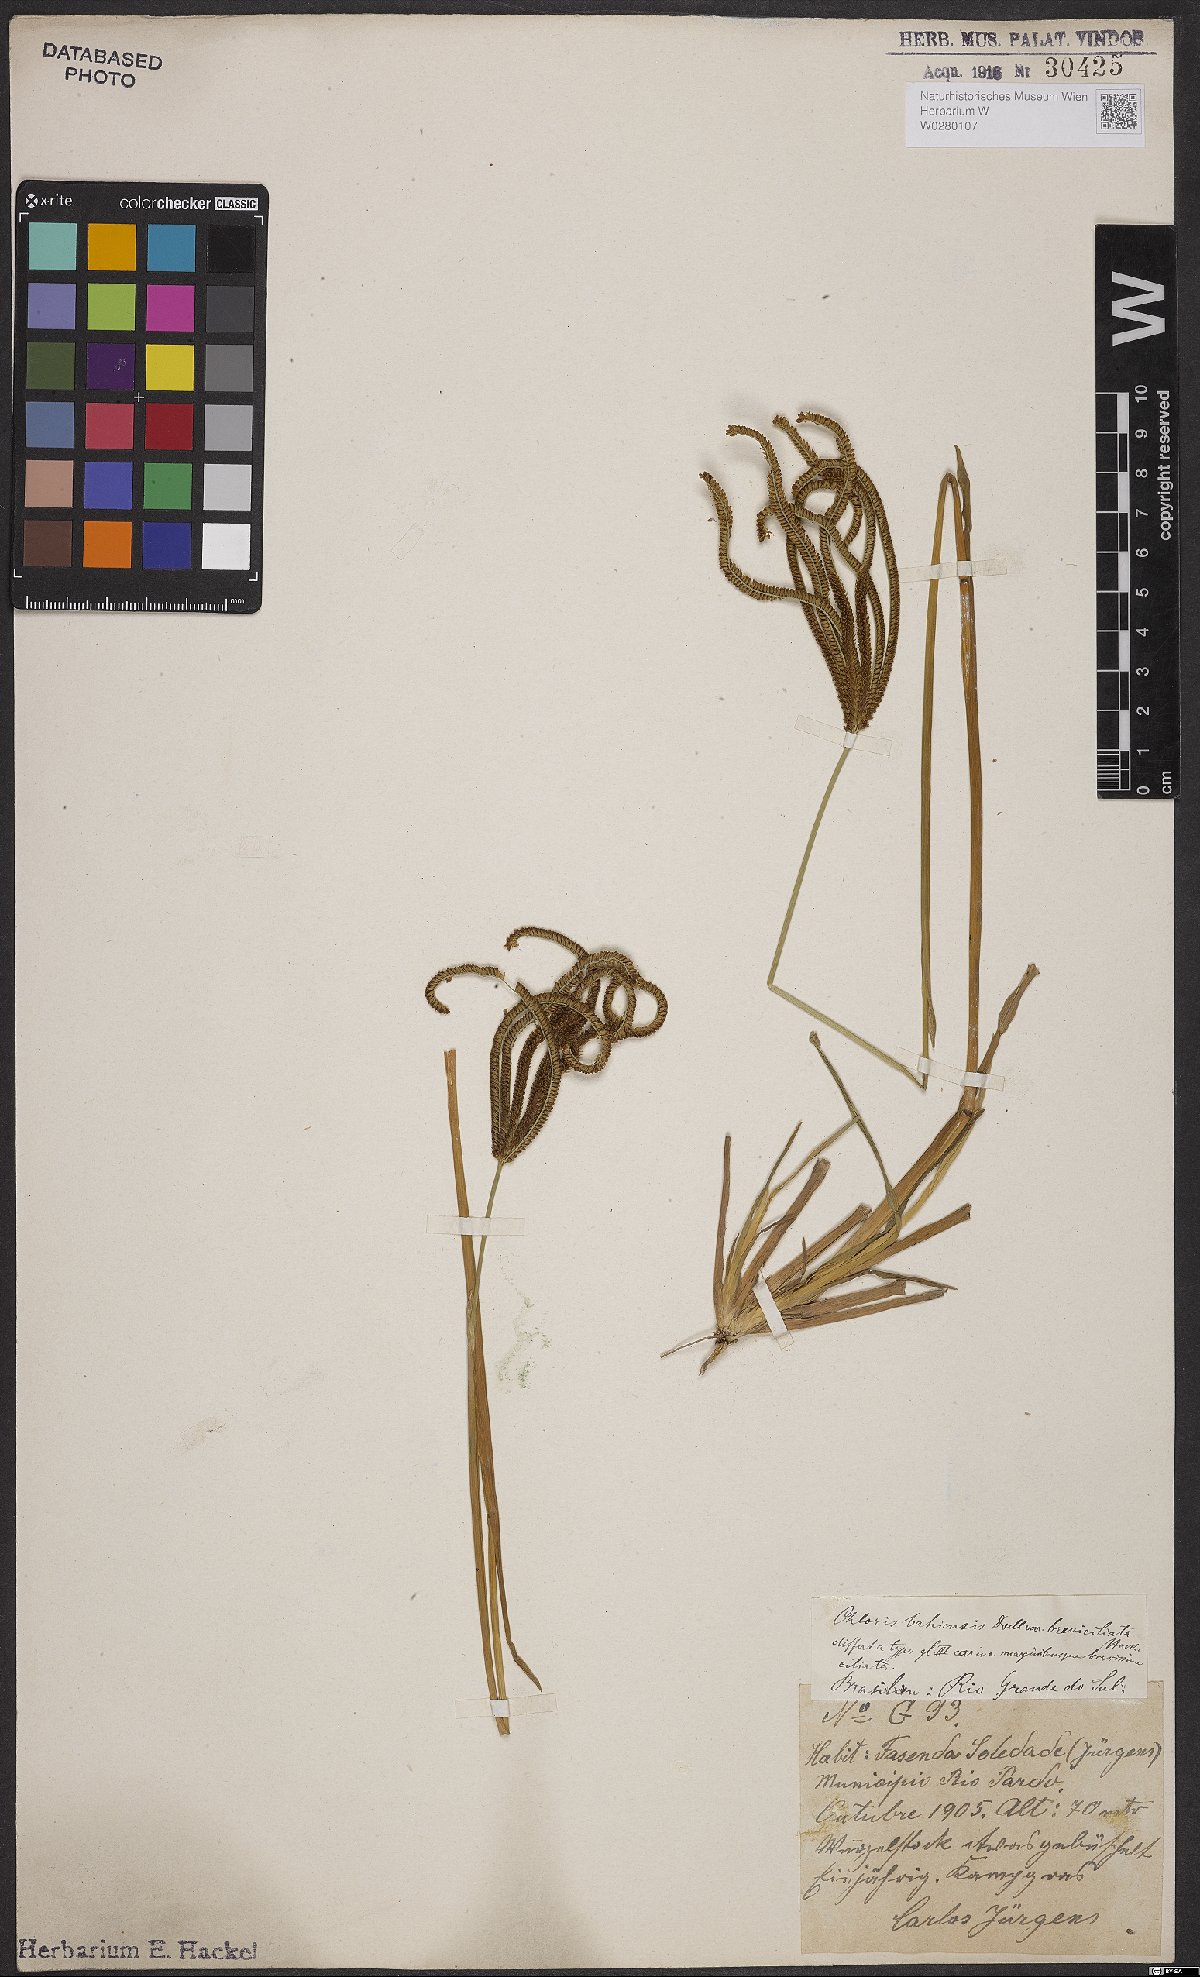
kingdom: Plantae
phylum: Tracheophyta
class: Liliopsida
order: Poales
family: Poaceae
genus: Eustachys
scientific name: Eustachys bahiensis
